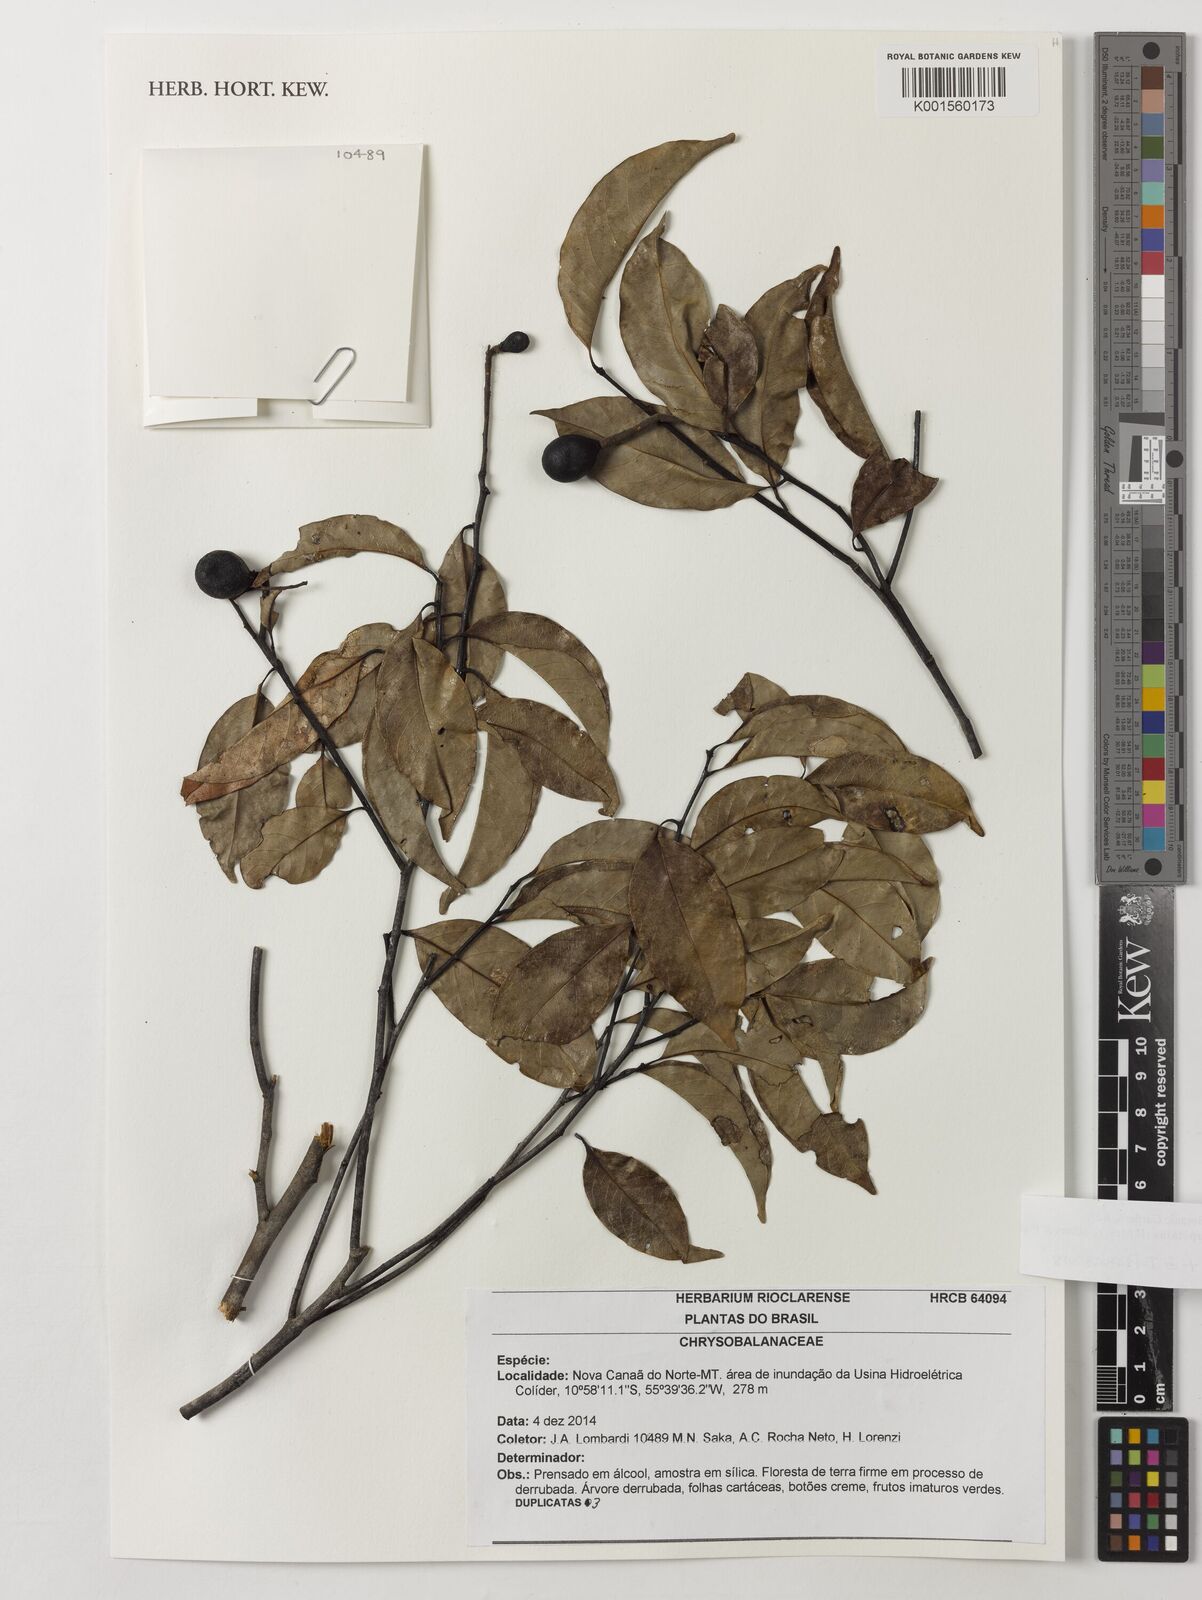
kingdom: Plantae
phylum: Tracheophyta
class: Magnoliopsida
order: Malpighiales
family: Chrysobalanaceae
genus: Leptobalanus
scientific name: Leptobalanus apetalus
